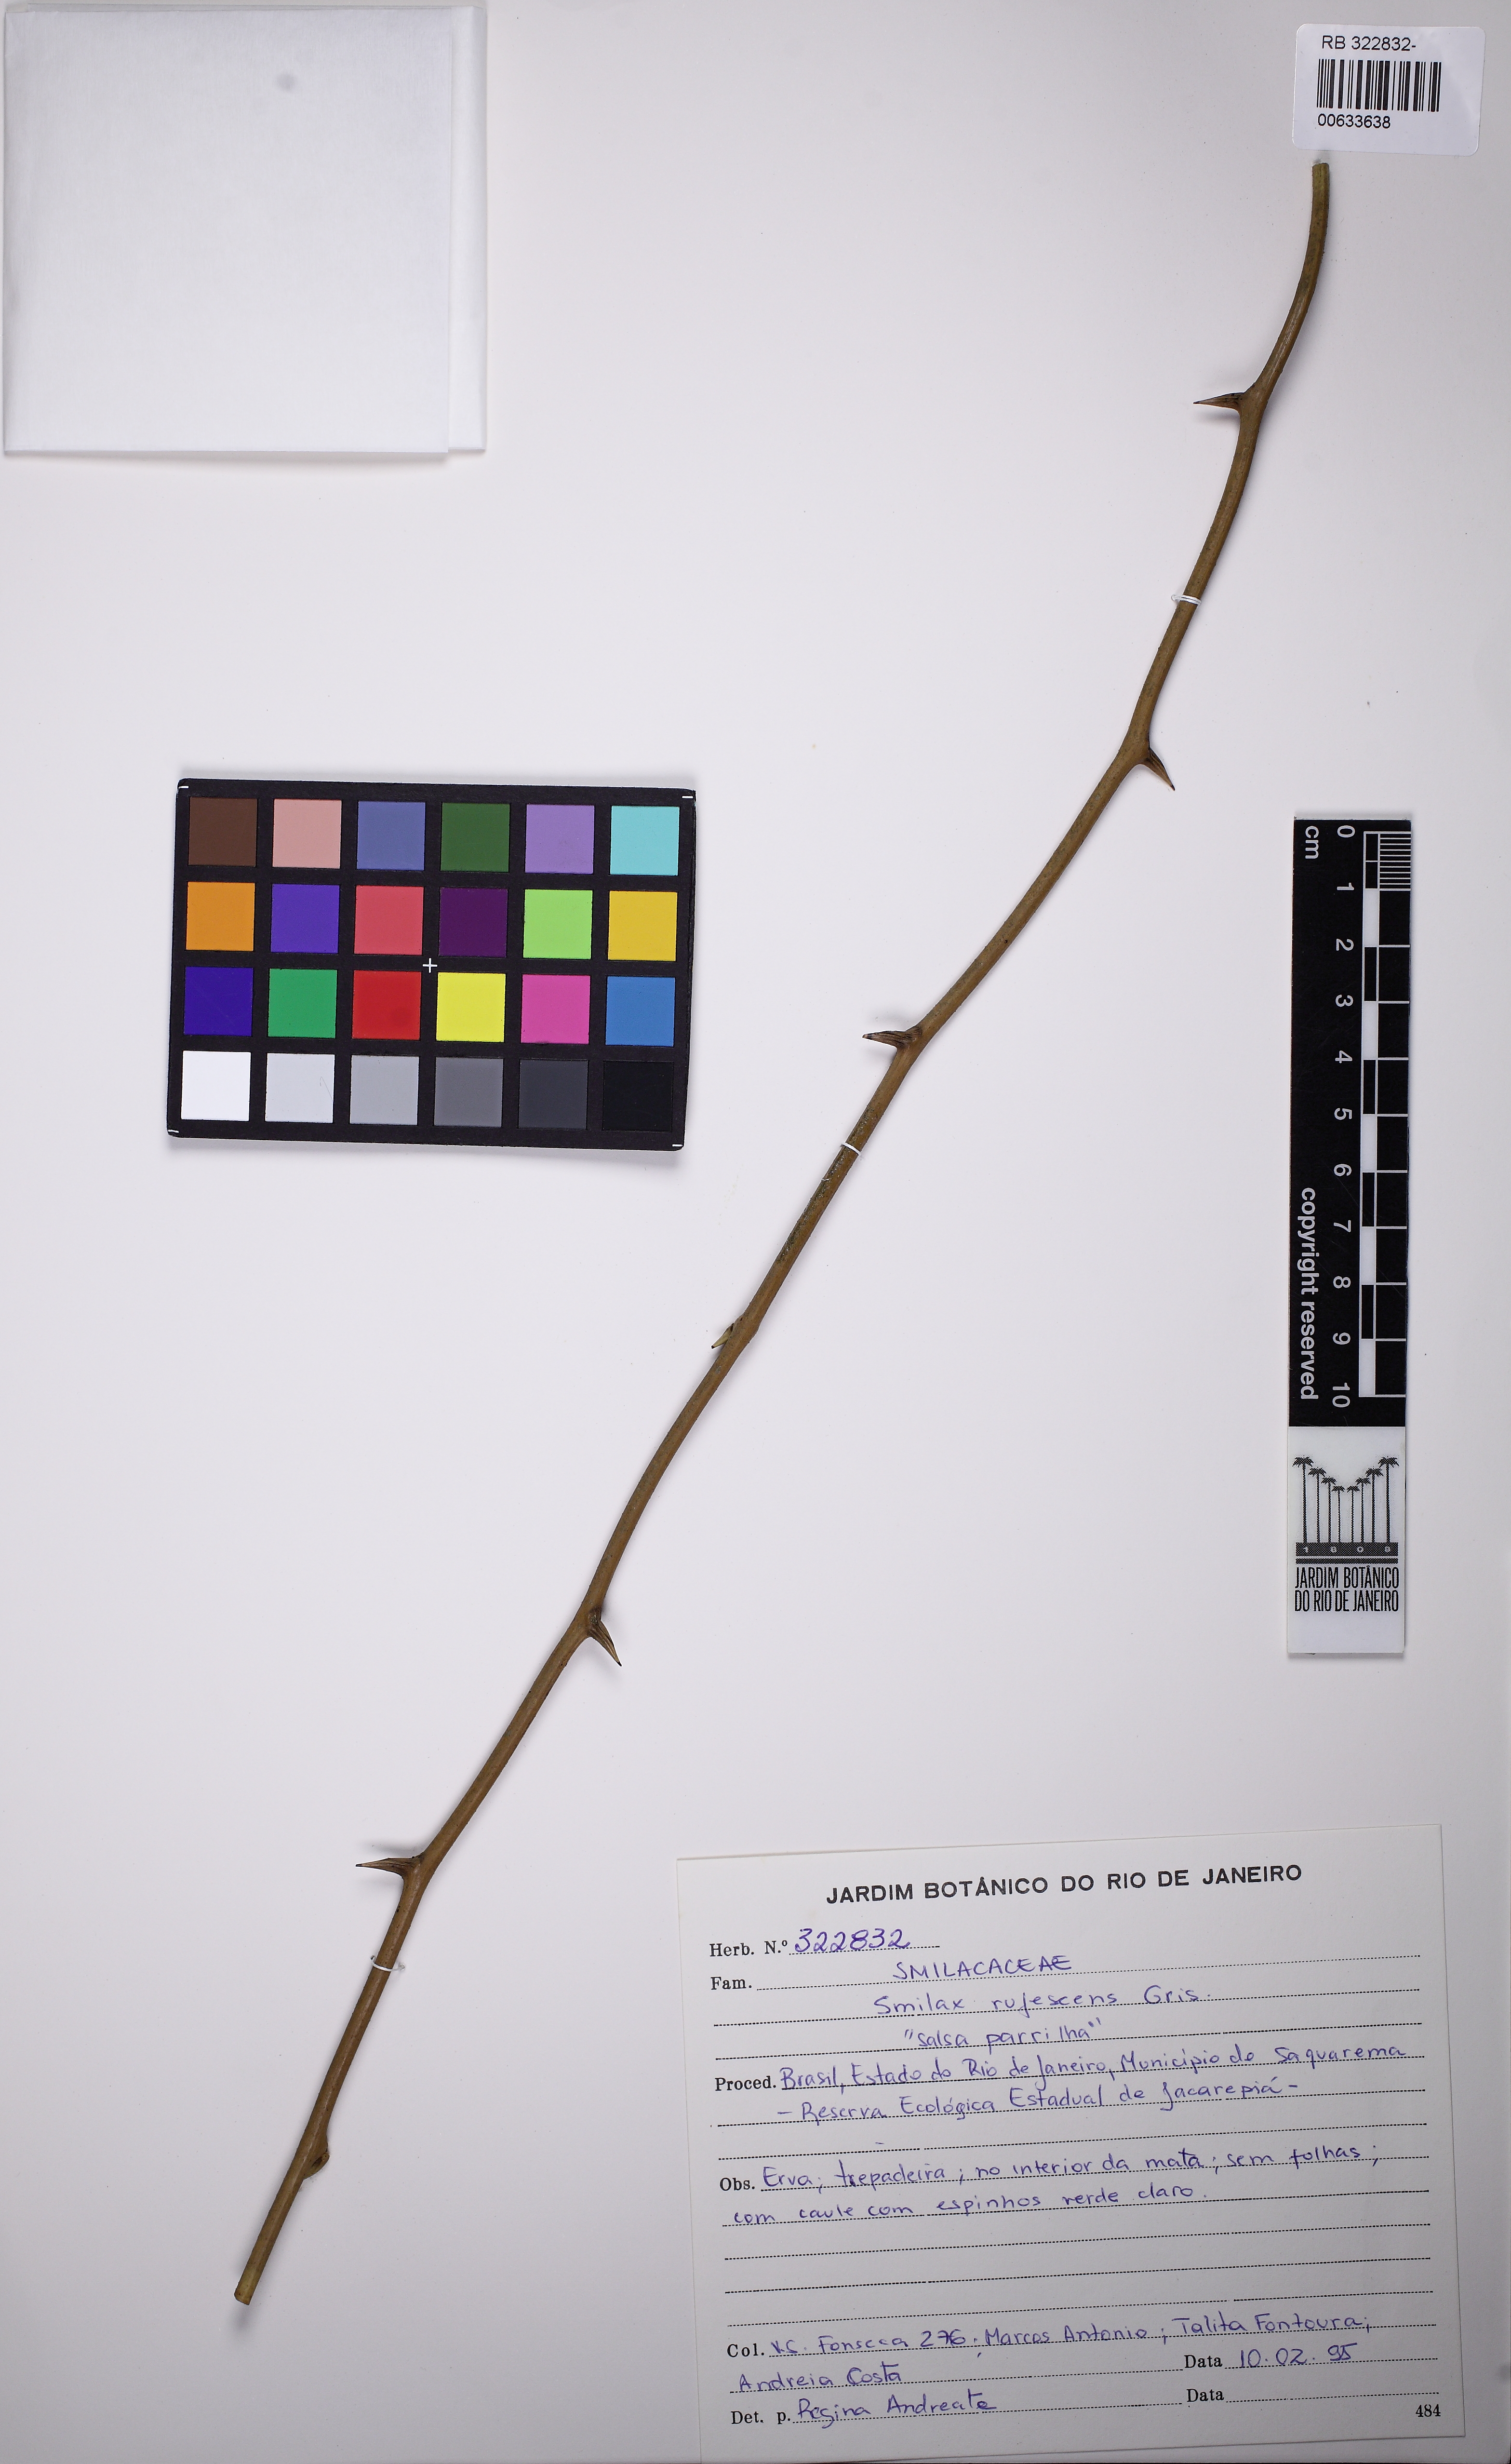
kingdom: Plantae
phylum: Tracheophyta
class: Liliopsida
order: Liliales
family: Smilacaceae
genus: Smilax
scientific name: Smilax rufescens
